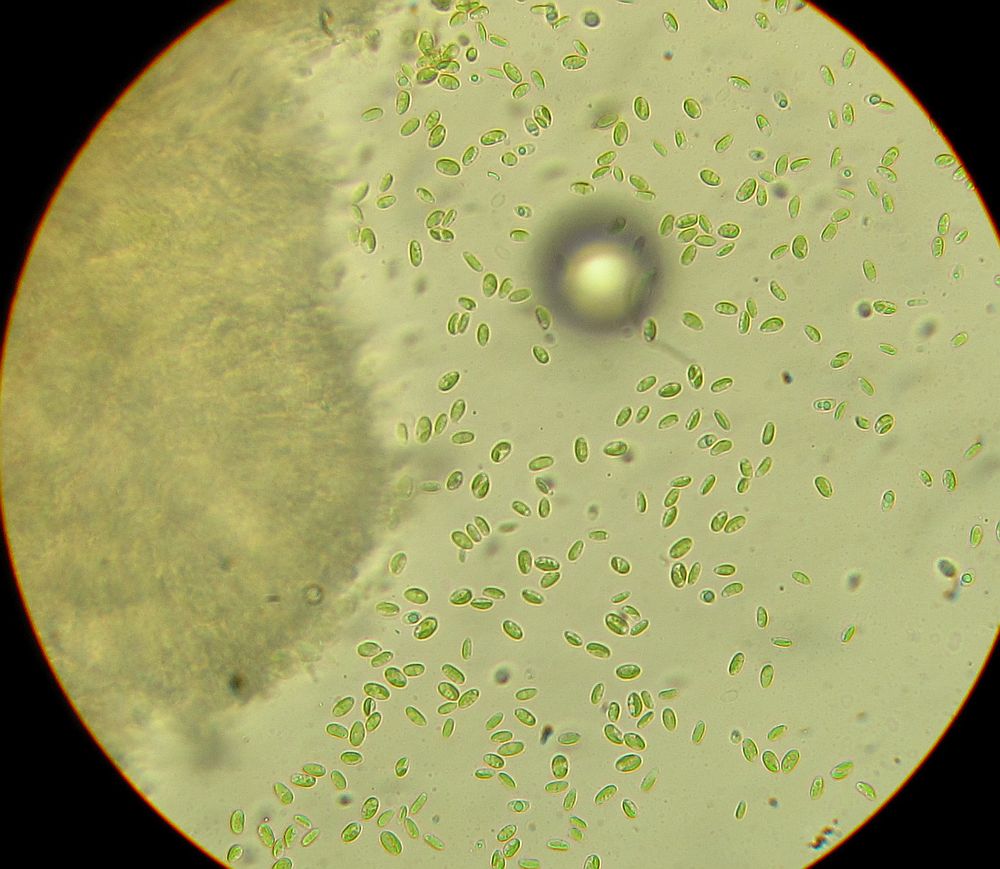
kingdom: Fungi
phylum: Basidiomycota
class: Agaricomycetes
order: Corticiales
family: Corticiaceae
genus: Lyomyces
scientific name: Lyomyces crustosus
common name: vortet hyldehinde
